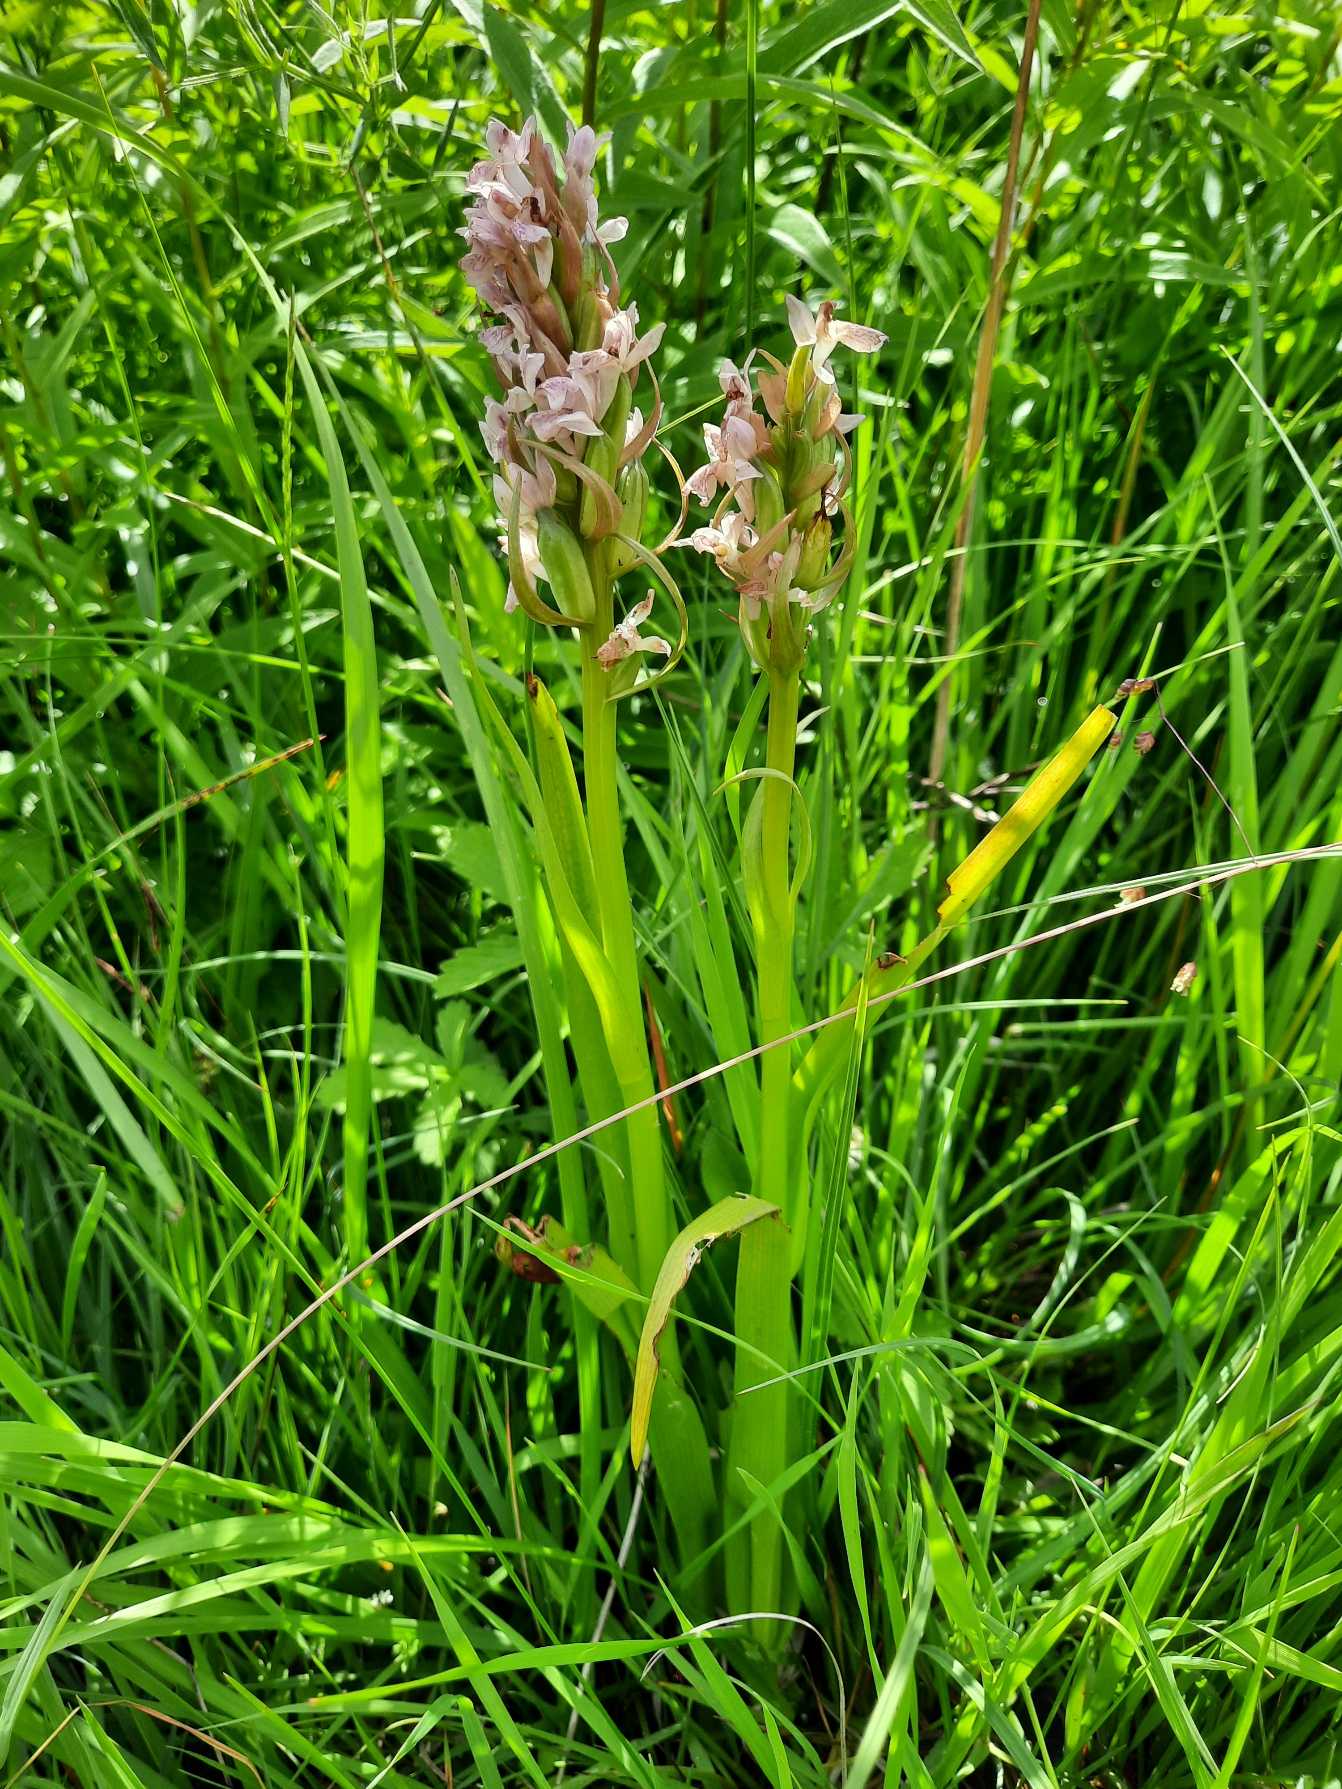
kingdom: Plantae
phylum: Tracheophyta
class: Liliopsida
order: Asparagales
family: Orchidaceae
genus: Dactylorhiza
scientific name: Dactylorhiza incarnata
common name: Kødfarvet gøgeurt
